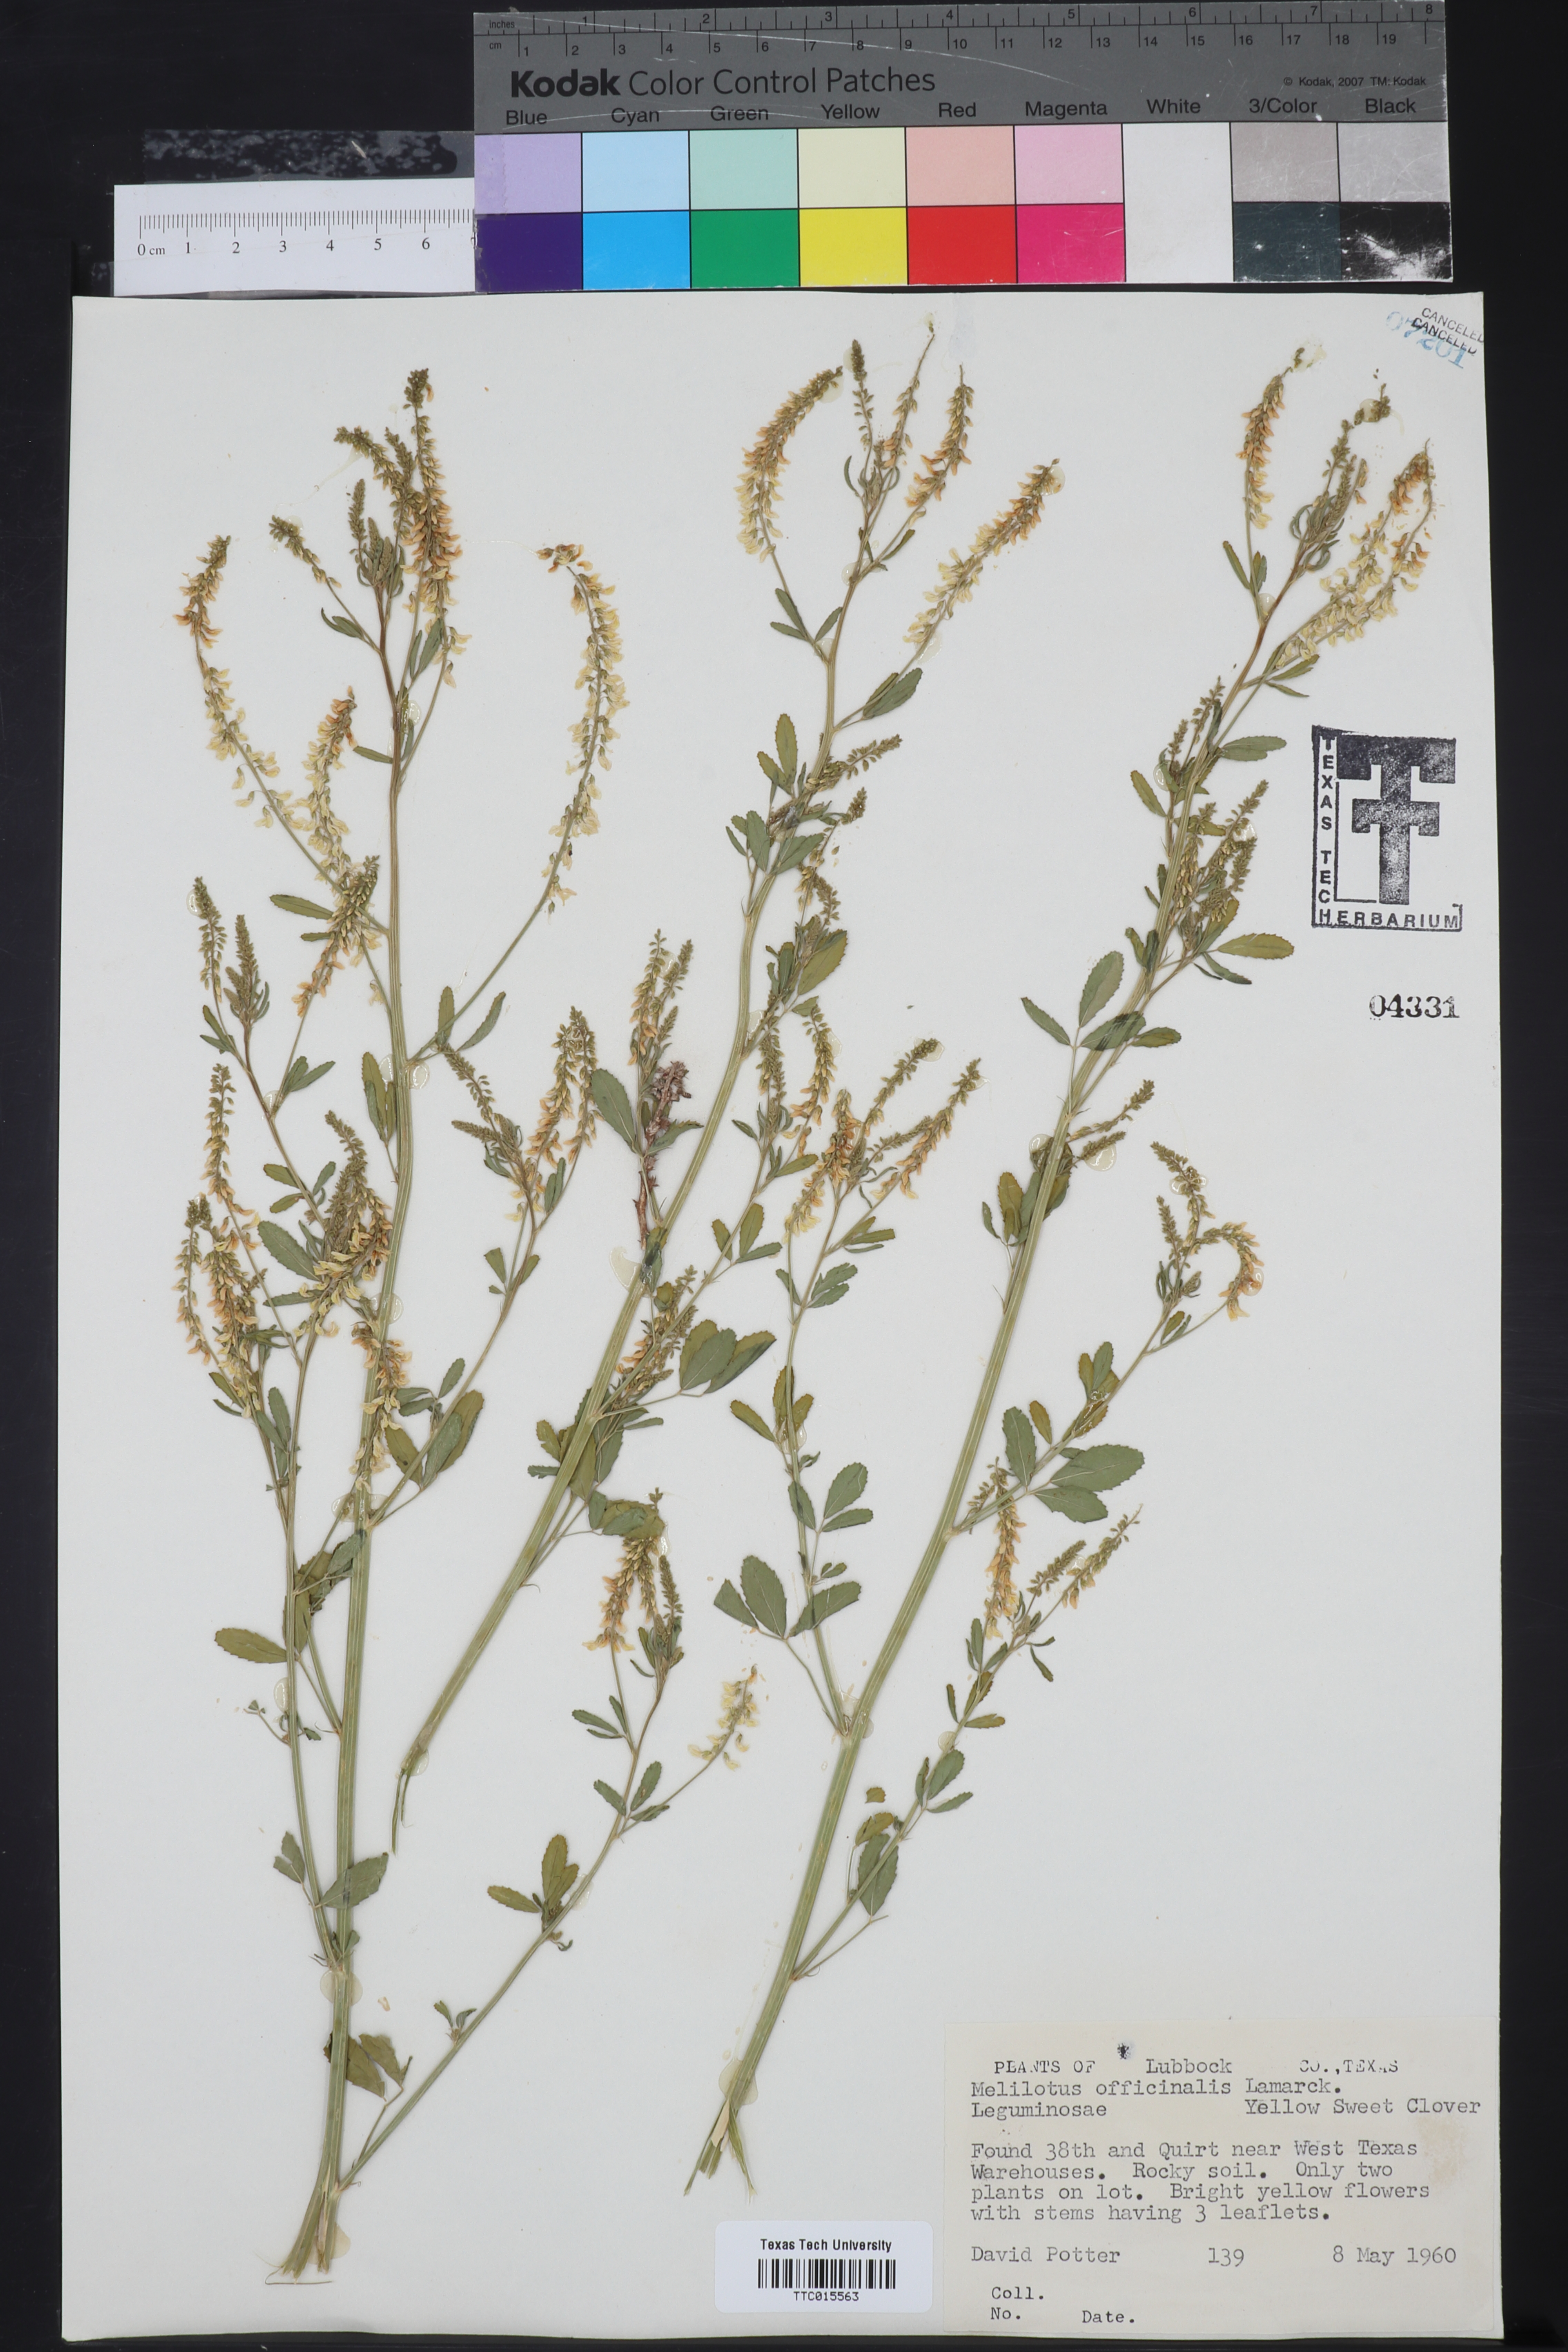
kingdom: Plantae
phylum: Tracheophyta
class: Magnoliopsida
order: Fabales
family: Fabaceae
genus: Melilotus
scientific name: Melilotus officinalis
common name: Sweetclover
